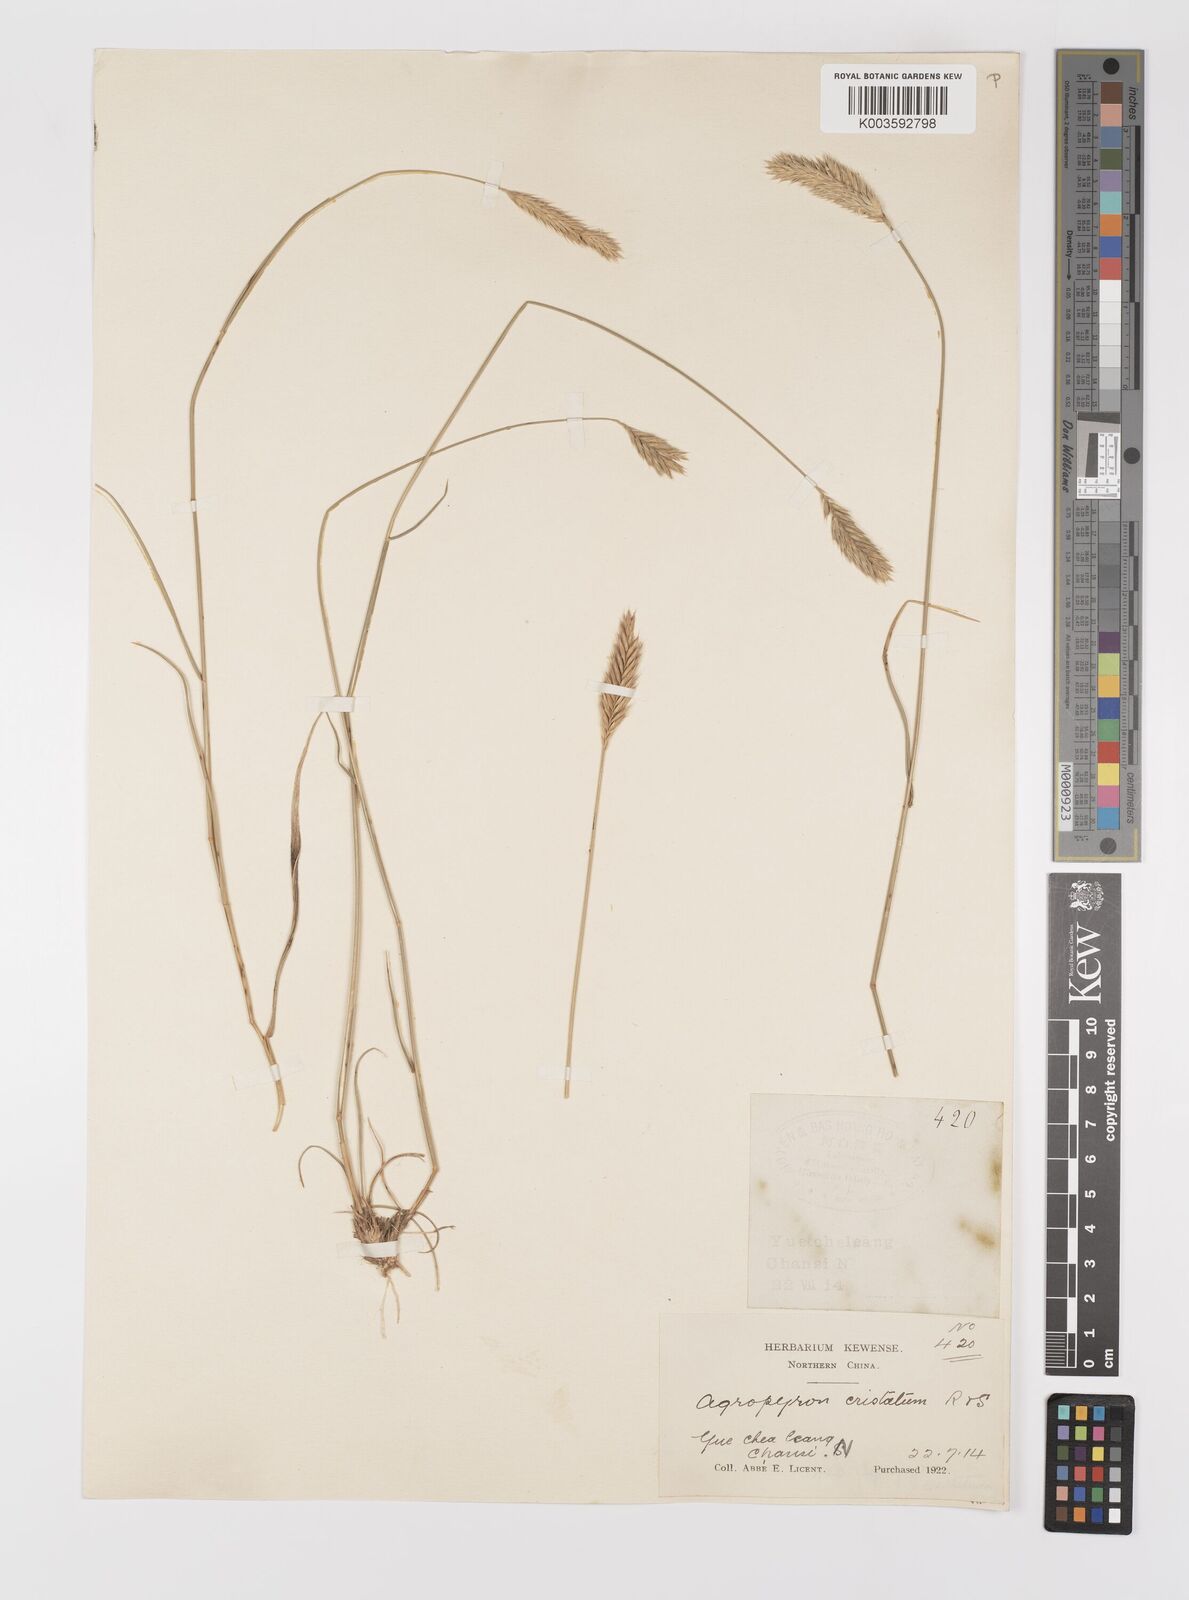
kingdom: Plantae
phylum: Tracheophyta
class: Liliopsida
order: Poales
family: Poaceae
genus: Agropyron
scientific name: Agropyron cristatum
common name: Crested wheatgrass
